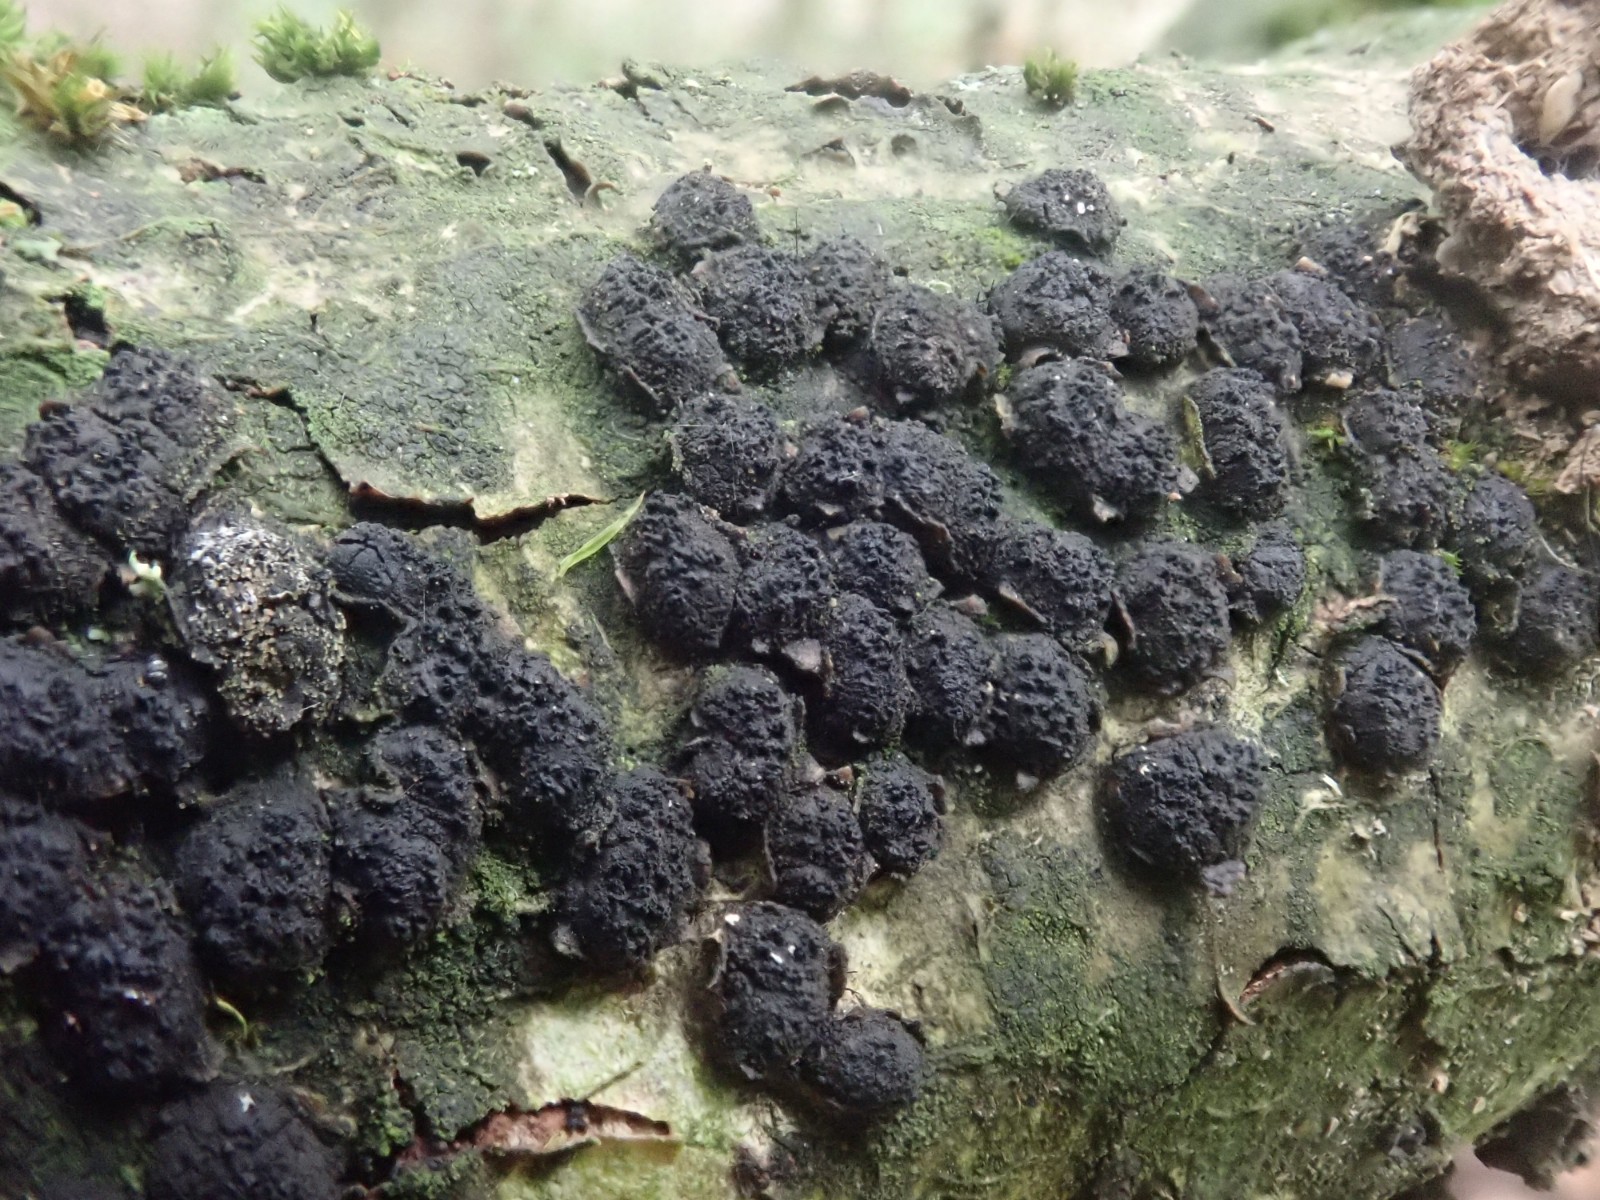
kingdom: Fungi
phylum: Ascomycota
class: Sordariomycetes
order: Xylariales
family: Diatrypaceae
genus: Diatrypella
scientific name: Diatrypella quercina
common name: ege-kulskorpe
